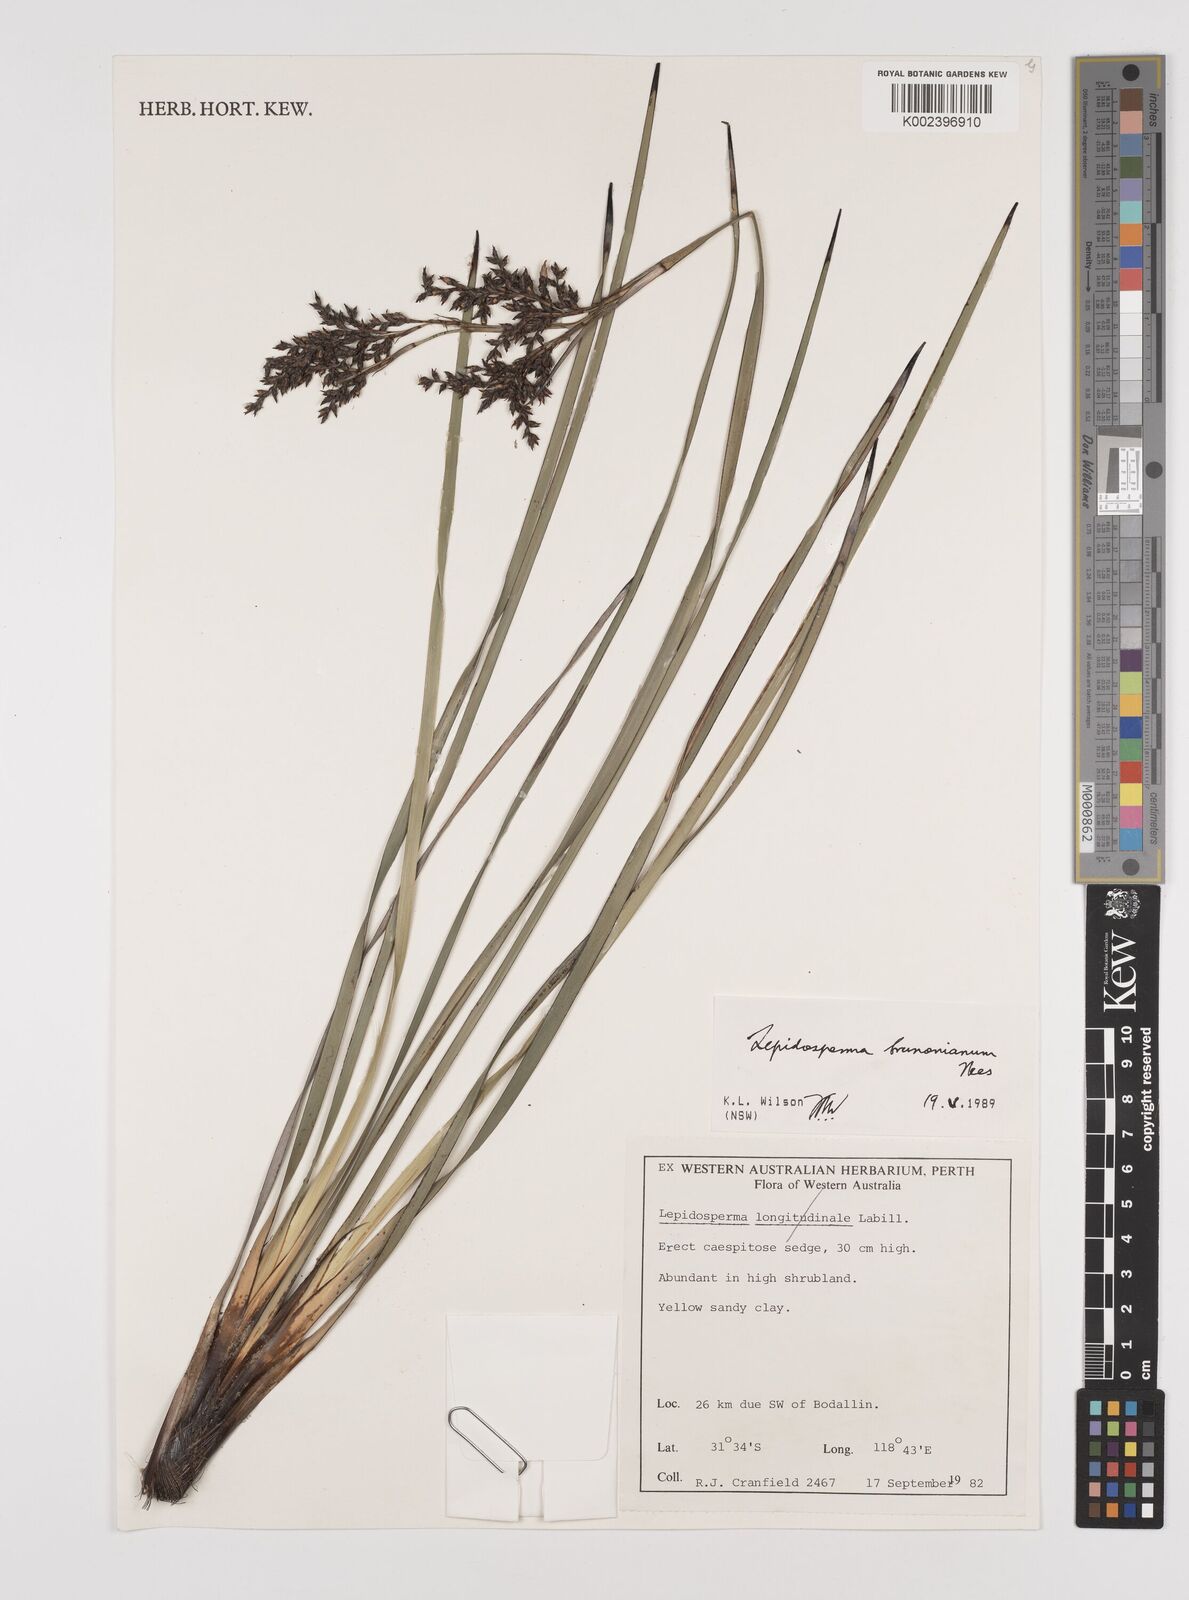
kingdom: Plantae
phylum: Tracheophyta
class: Liliopsida
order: Poales
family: Cyperaceae
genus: Lepidosperma
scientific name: Lepidosperma sieberi
